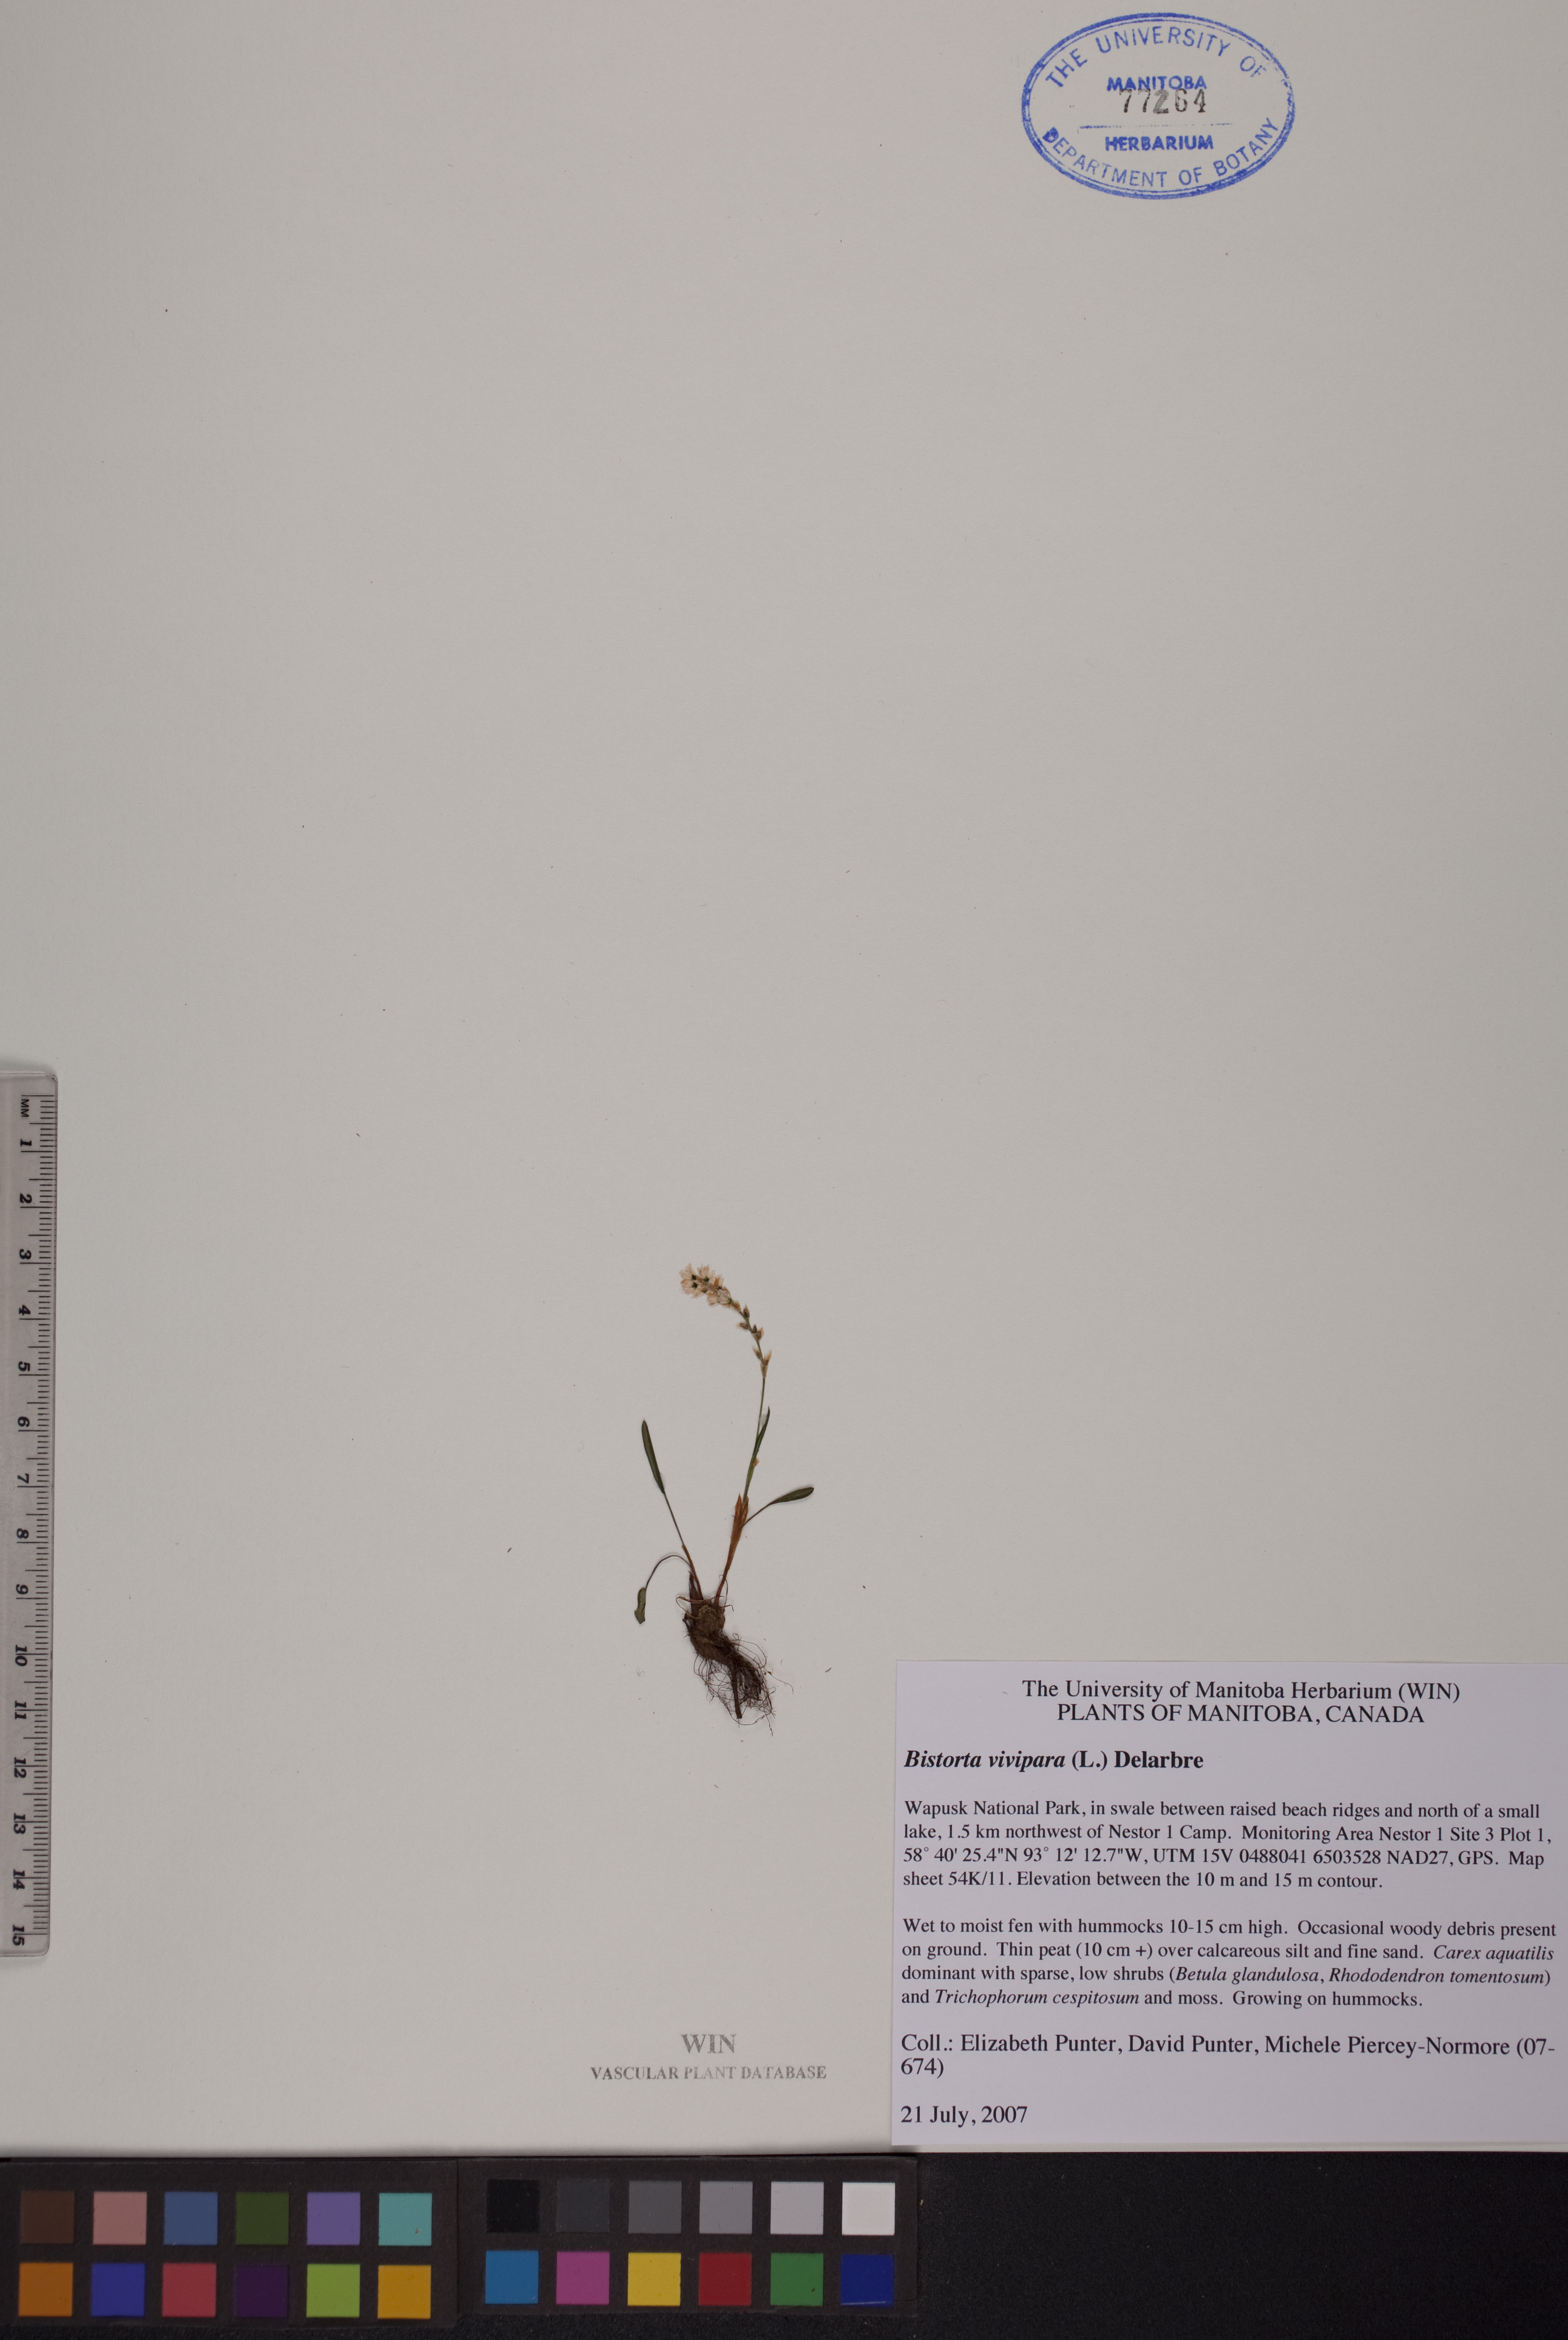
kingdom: Plantae
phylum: Tracheophyta
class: Magnoliopsida
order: Caryophyllales
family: Polygonaceae
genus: Bistorta
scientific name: Bistorta vivipara
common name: Alpine bistort
